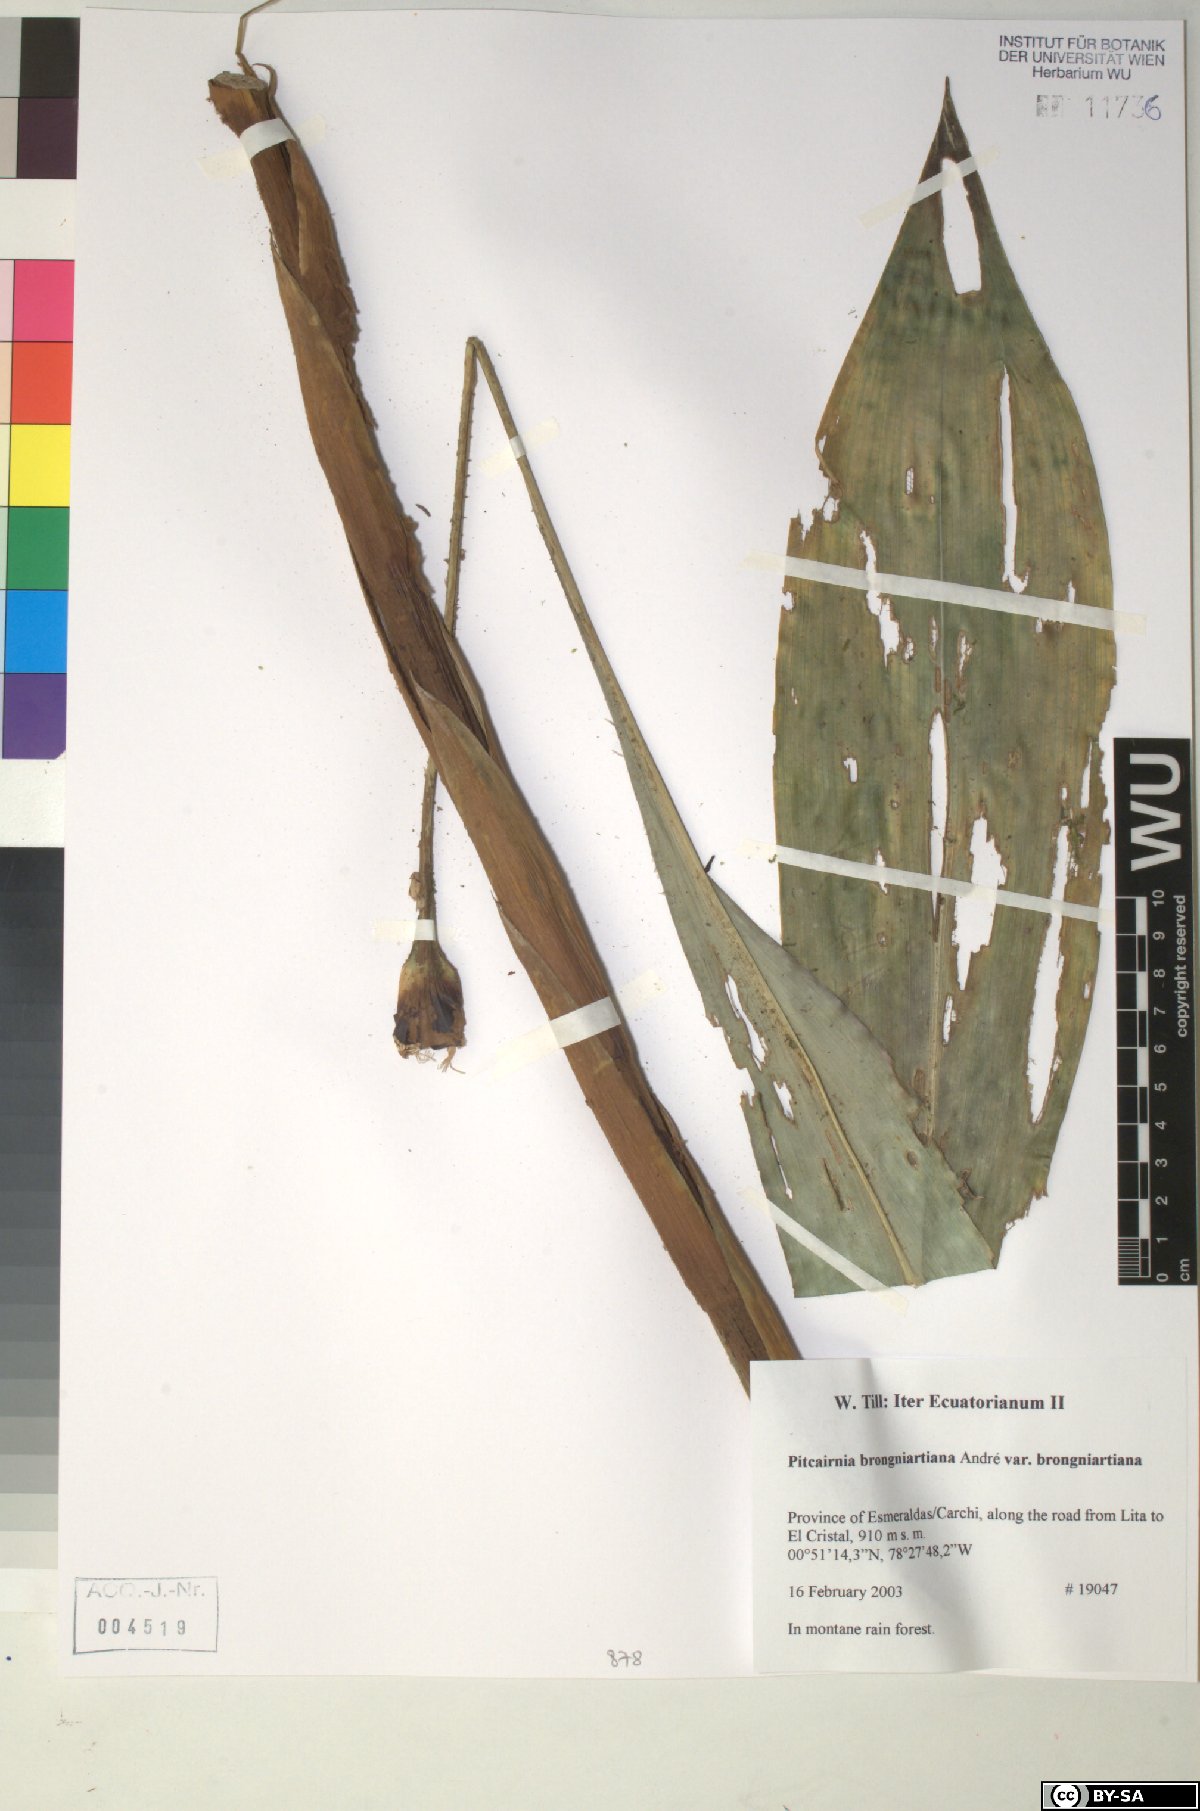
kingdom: Plantae
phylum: Tracheophyta
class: Liliopsida
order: Poales
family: Bromeliaceae
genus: Pitcairnia
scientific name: Pitcairnia
